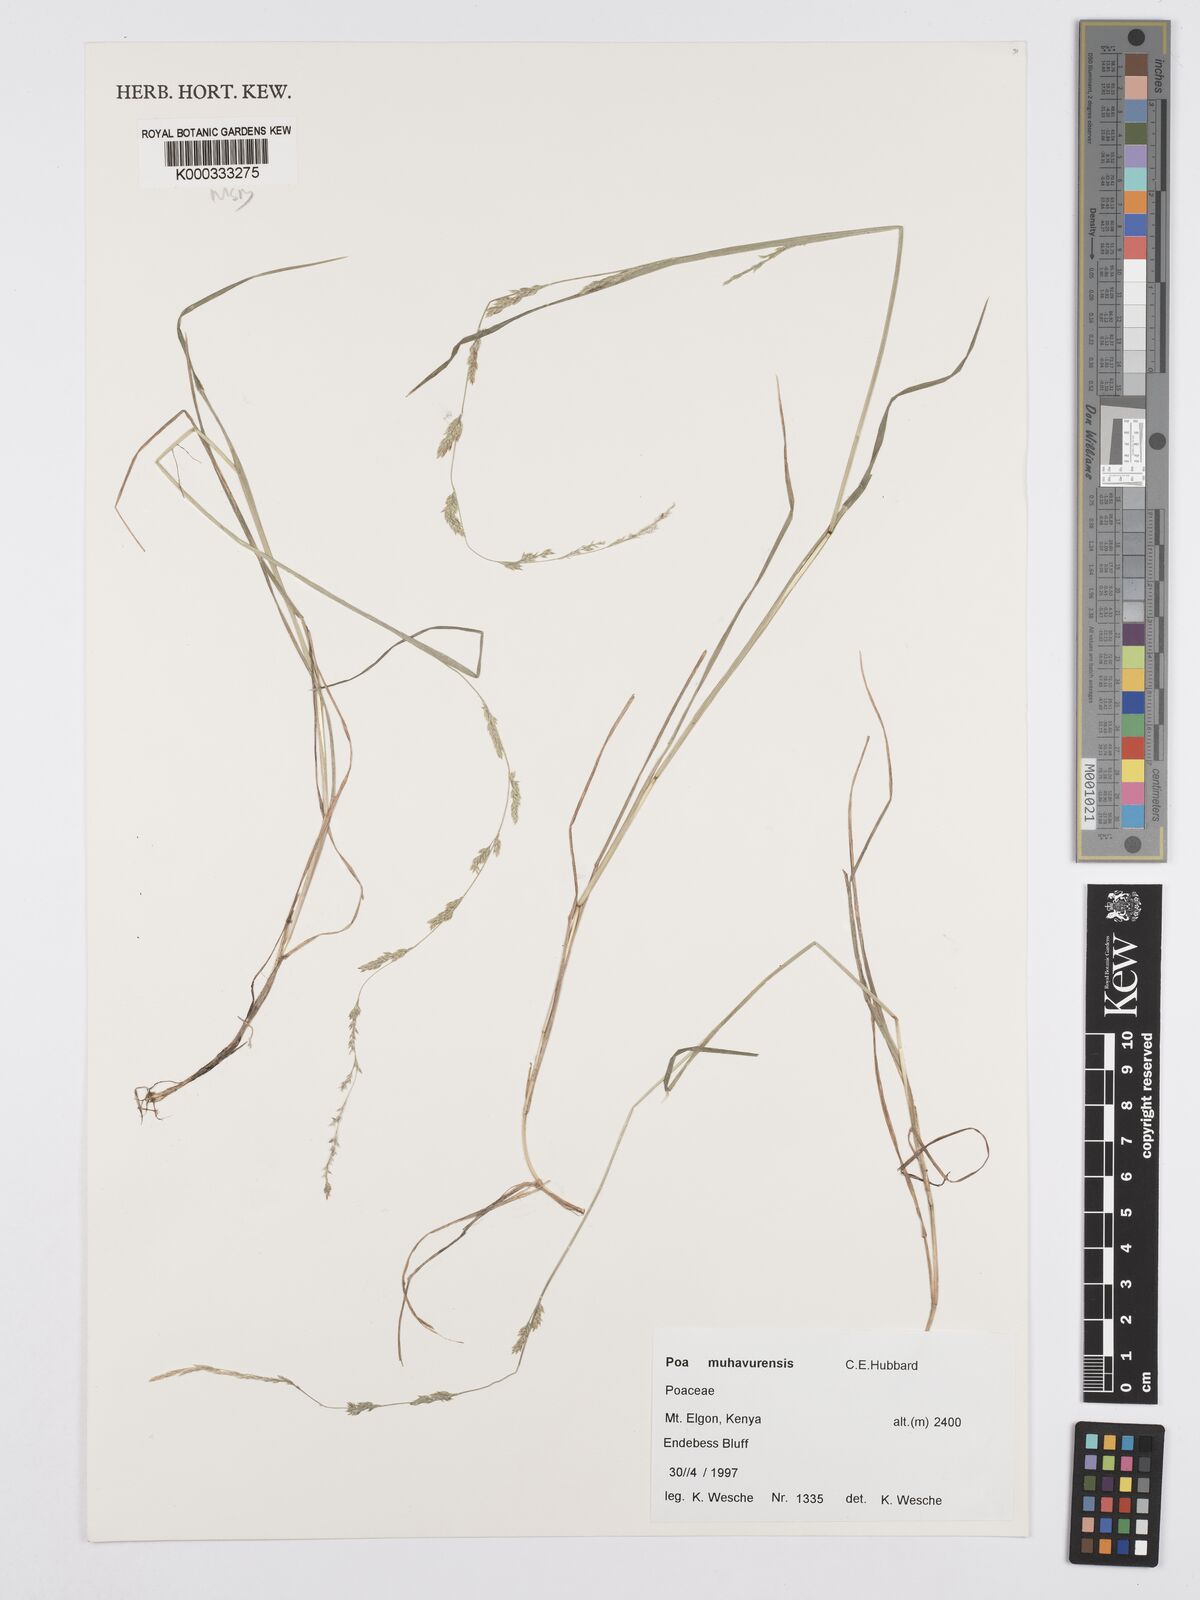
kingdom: Plantae
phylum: Tracheophyta
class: Liliopsida
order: Poales
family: Poaceae
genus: Poa
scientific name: Poa
